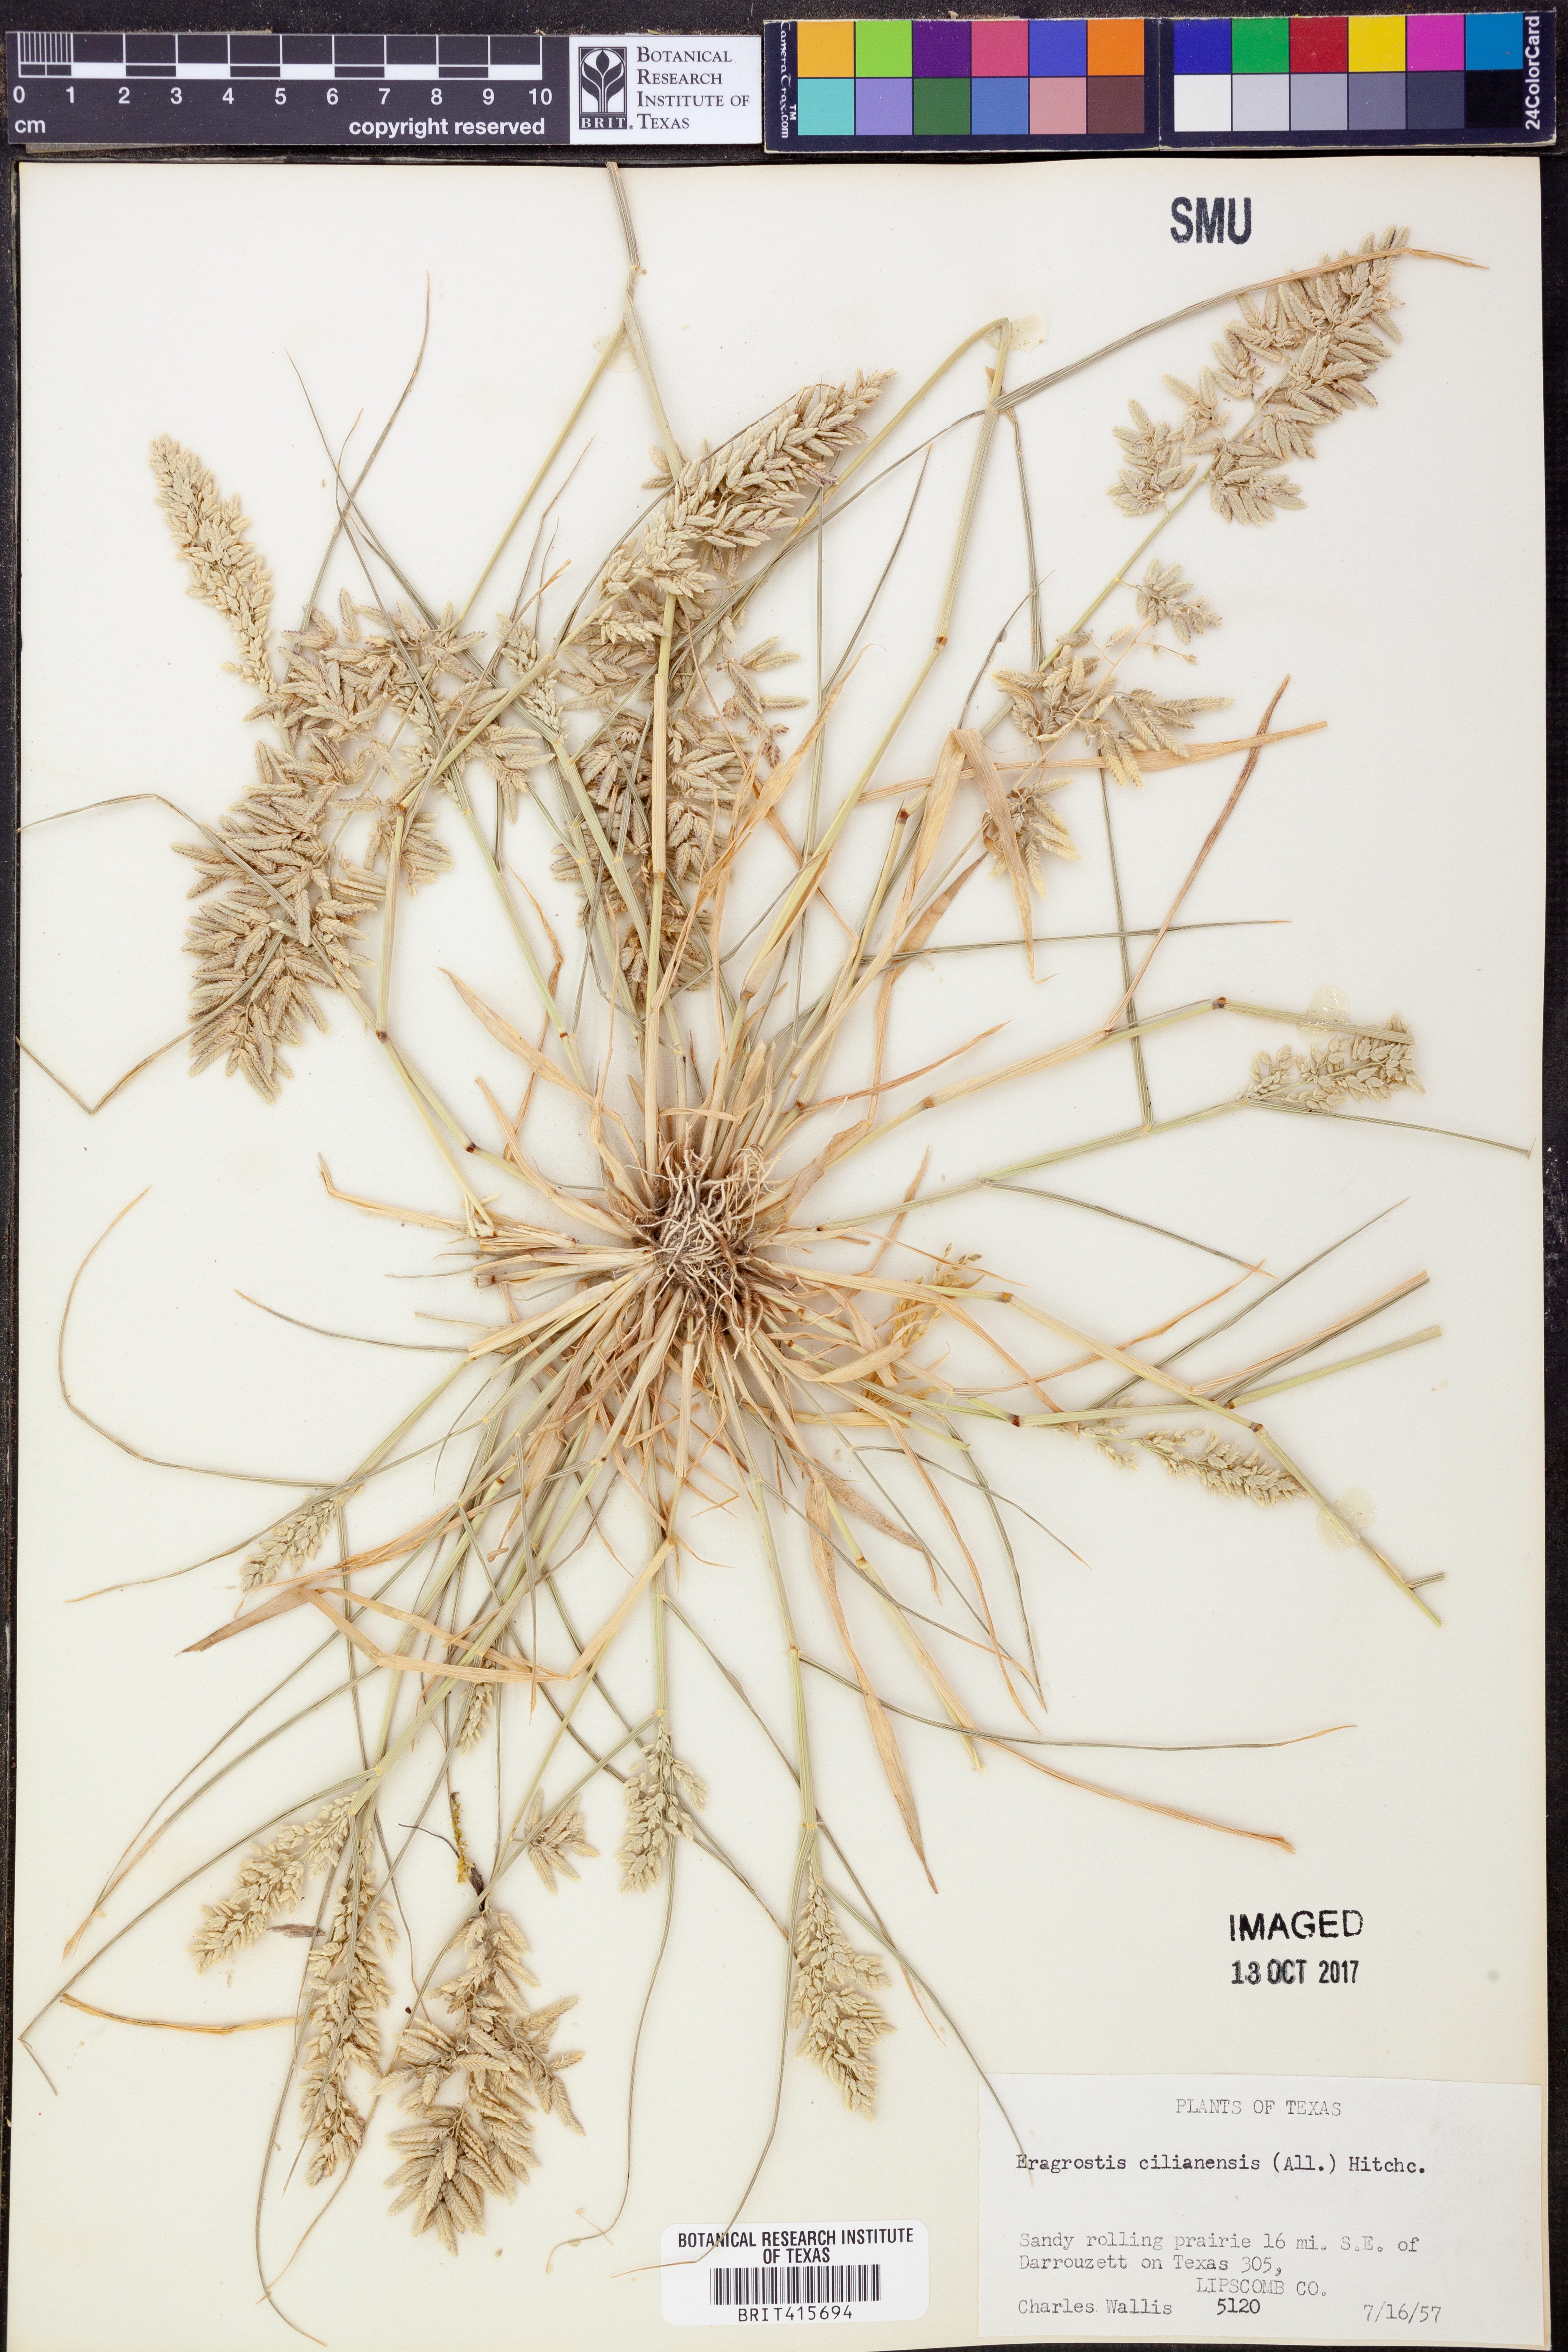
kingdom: Plantae
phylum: Tracheophyta
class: Liliopsida
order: Poales
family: Poaceae
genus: Eragrostis
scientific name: Eragrostis cilianensis
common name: Stinkgrass
